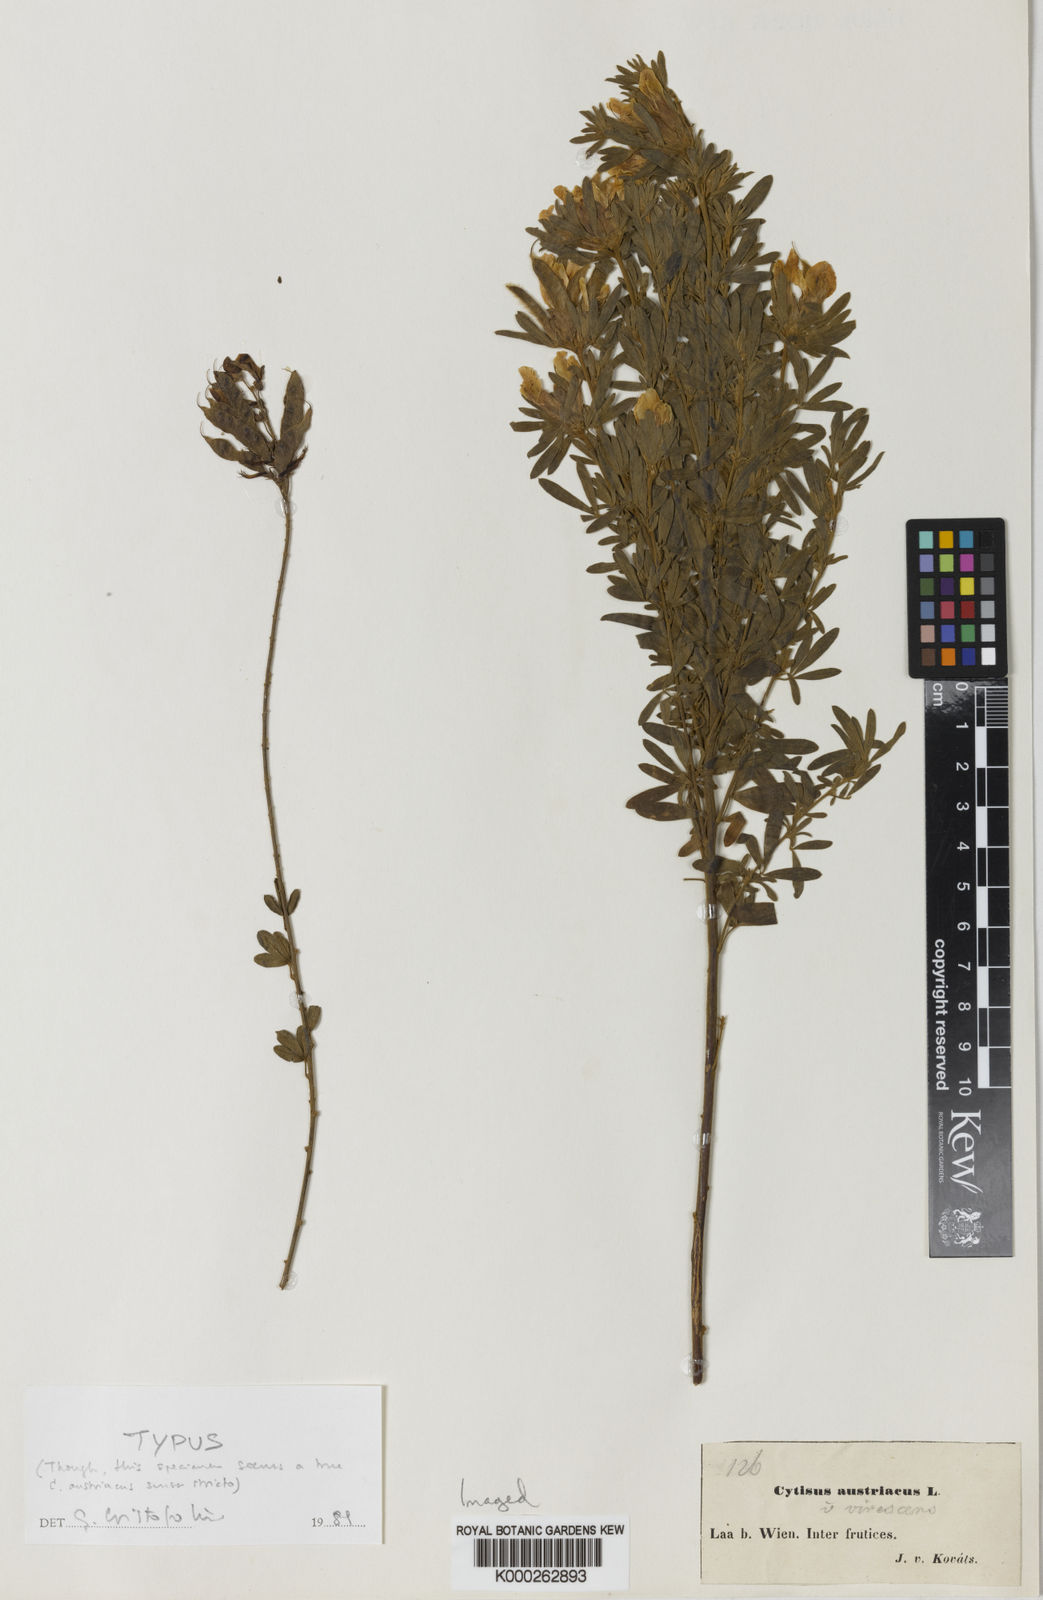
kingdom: Plantae
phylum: Tracheophyta
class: Magnoliopsida
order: Fabales
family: Fabaceae
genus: Chamaecytisus
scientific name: Chamaecytisus austriacus
